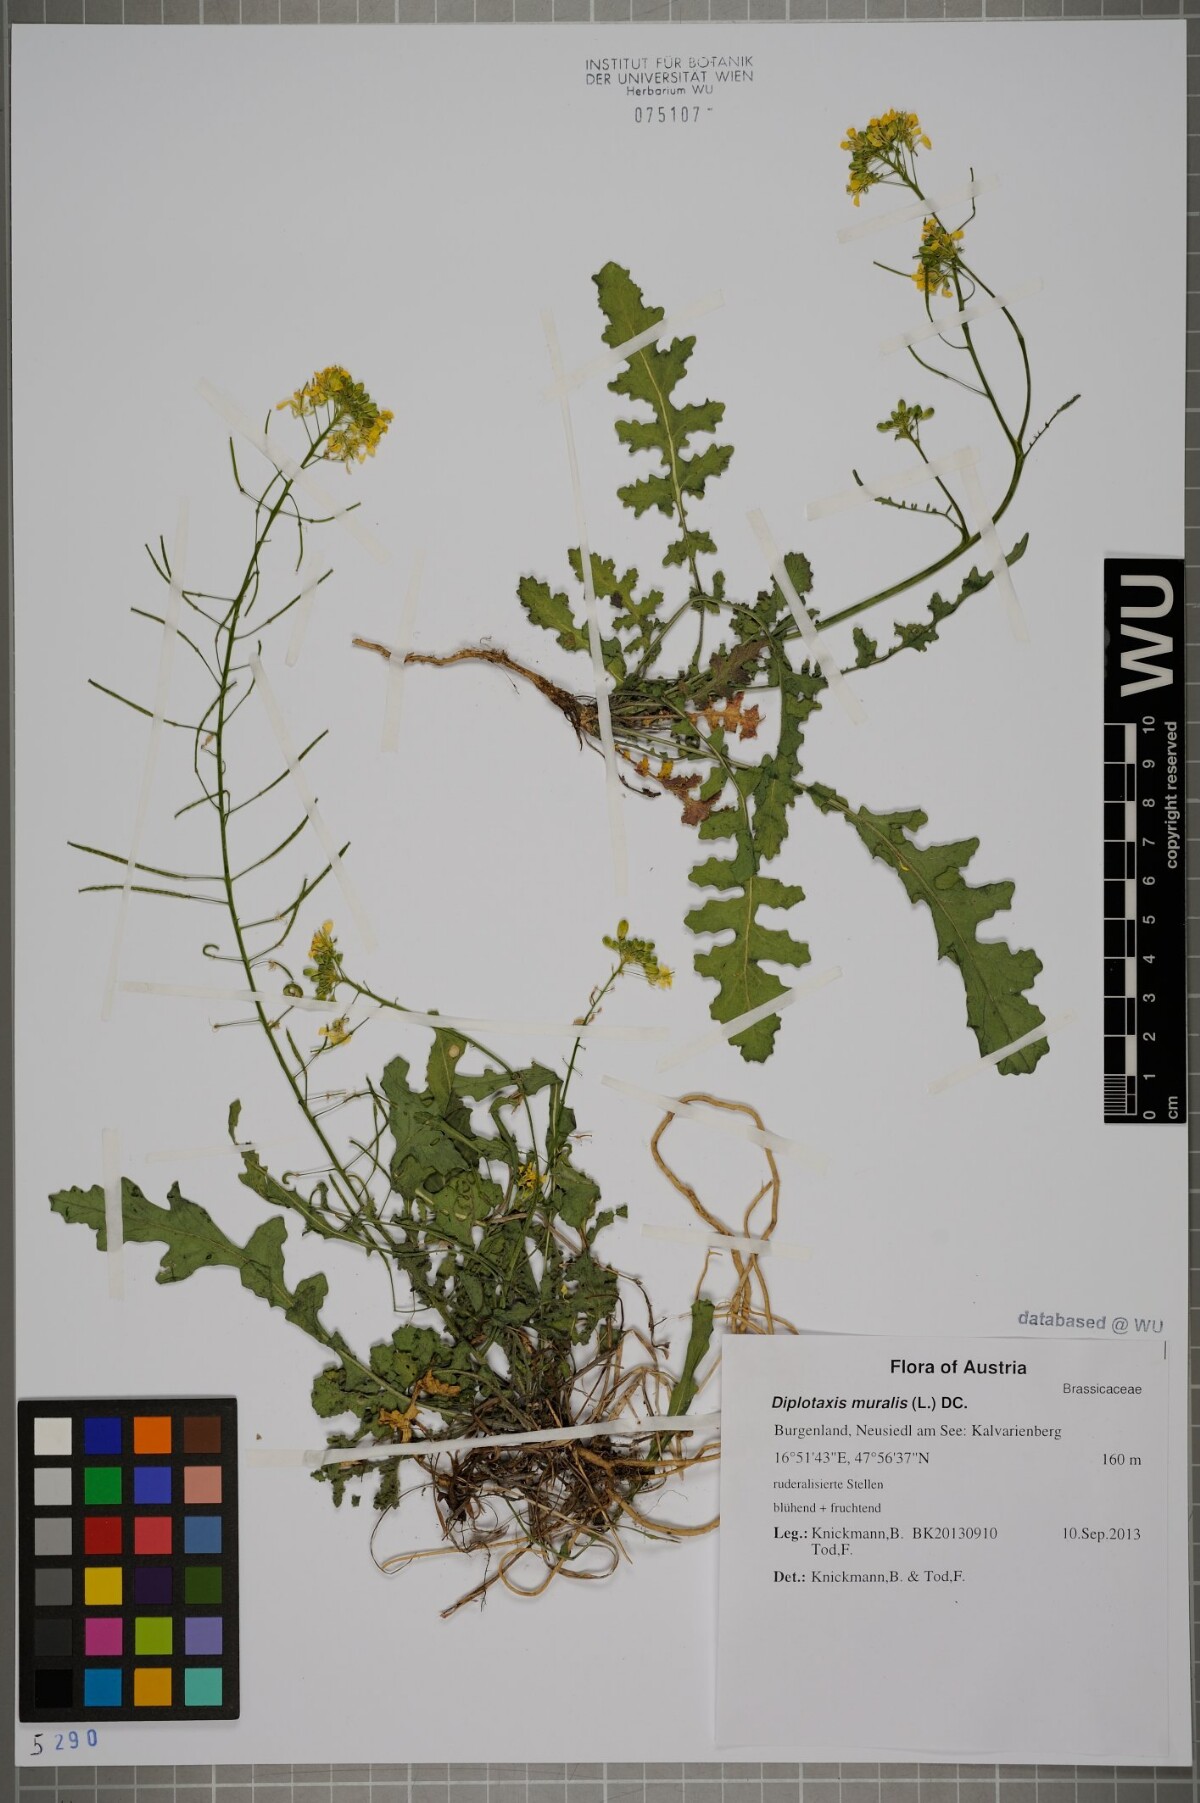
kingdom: Plantae
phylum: Tracheophyta
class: Magnoliopsida
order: Brassicales
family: Brassicaceae
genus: Diplotaxis
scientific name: Diplotaxis muralis
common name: Annual wall-rocket
